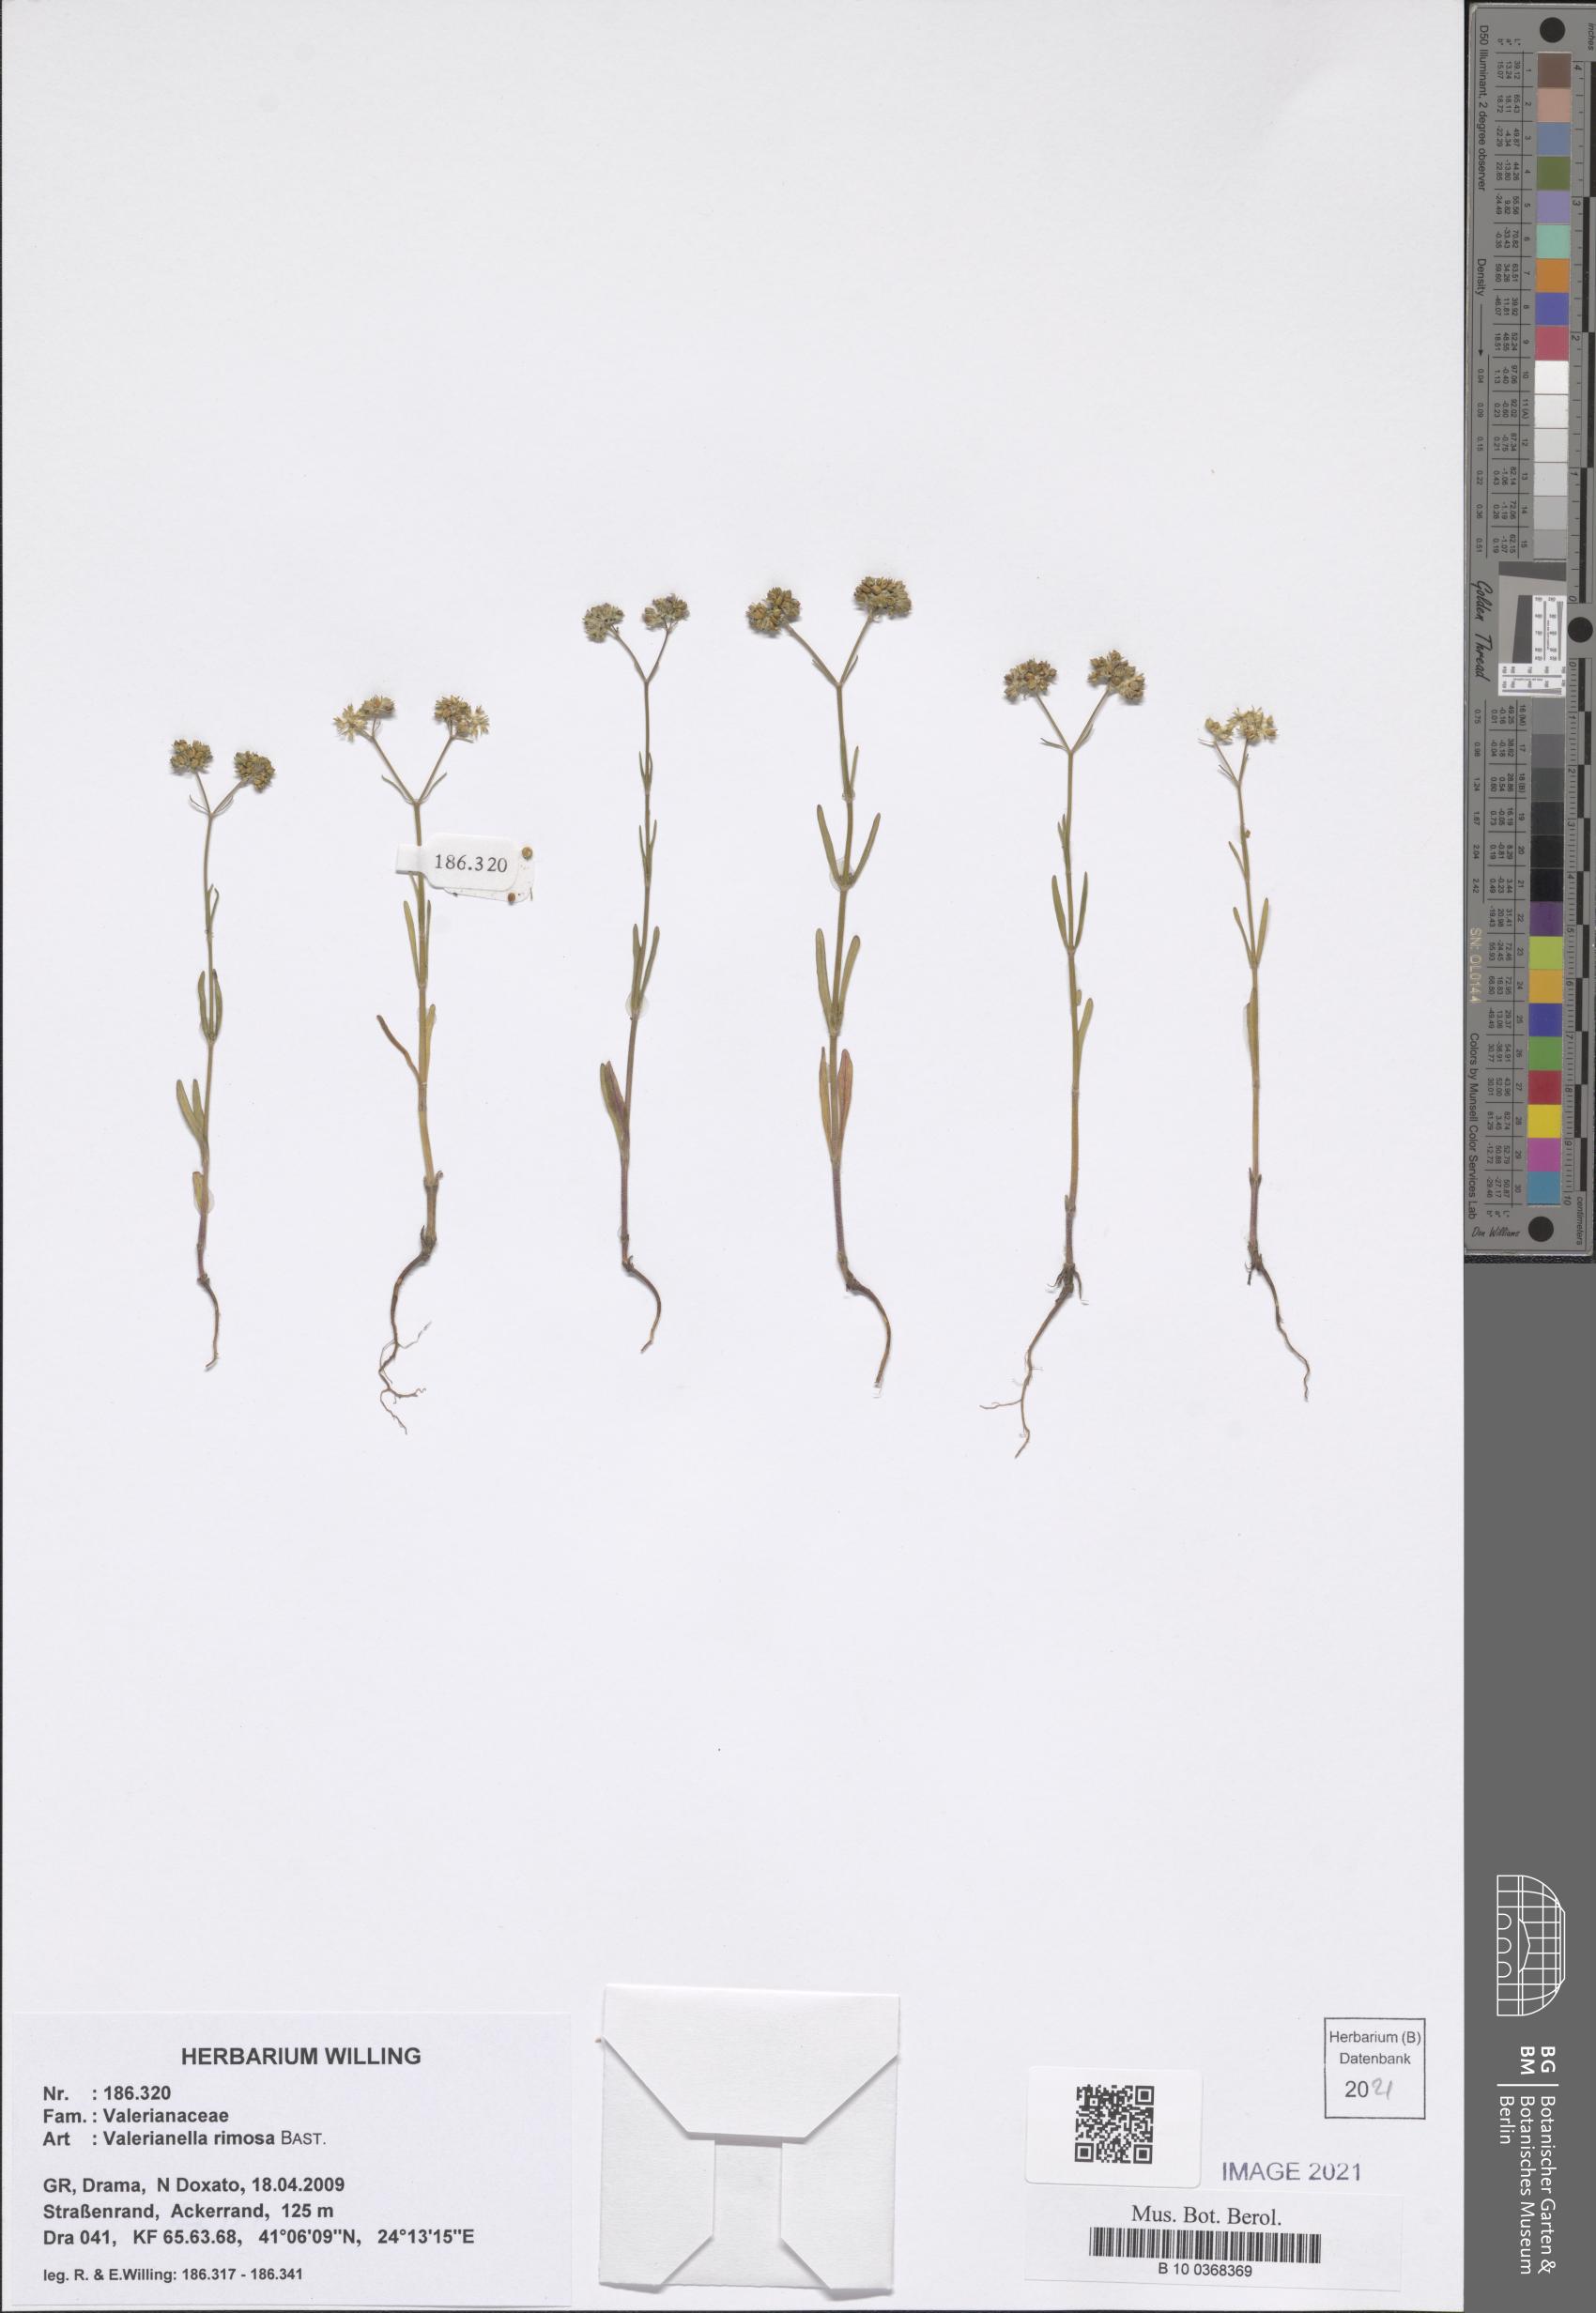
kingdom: Plantae
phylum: Tracheophyta
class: Magnoliopsida
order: Dipsacales
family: Caprifoliaceae
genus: Valerianella
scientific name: Valerianella rimosa
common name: Broad-fruited cornsalad
